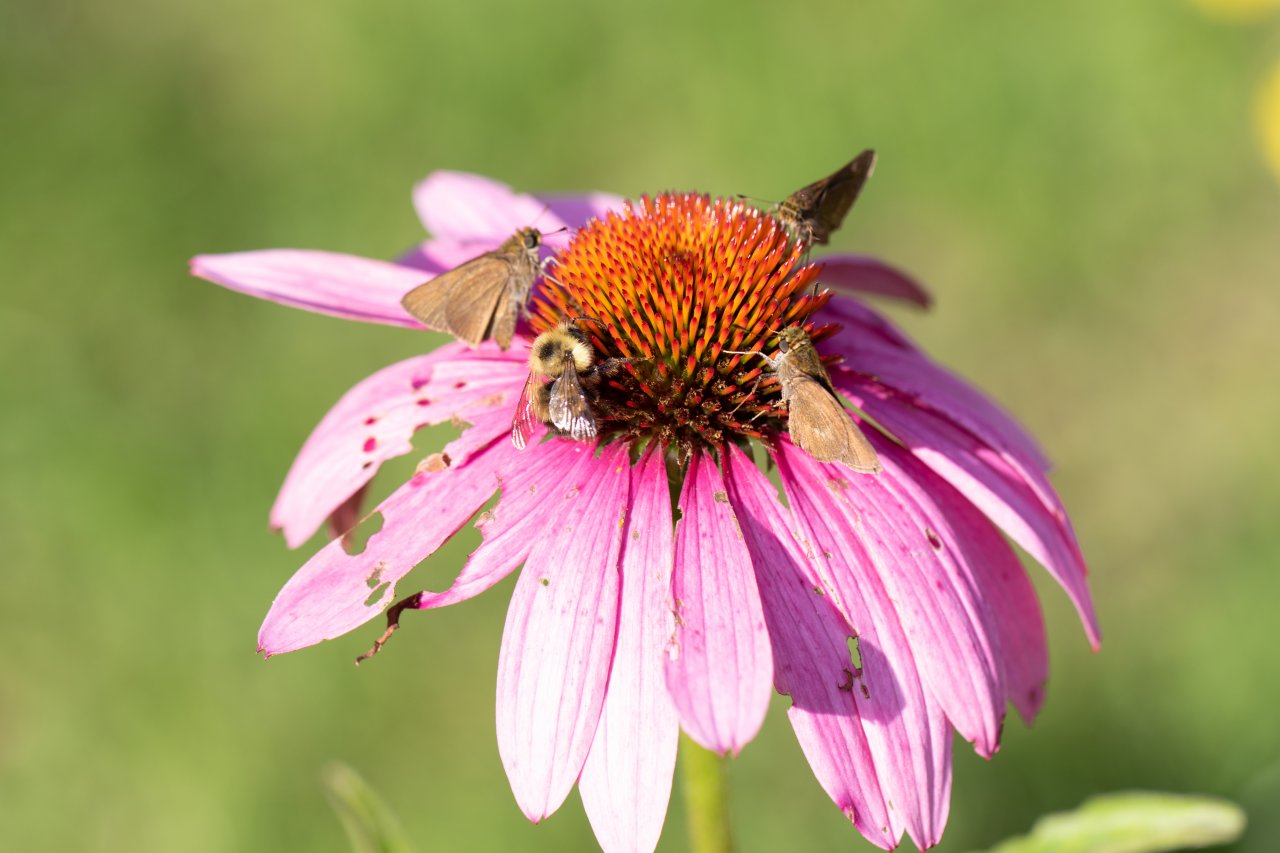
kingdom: Animalia
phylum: Arthropoda
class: Insecta
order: Lepidoptera
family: Hesperiidae
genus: Euphyes
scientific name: Euphyes vestris
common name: Dun Skipper
